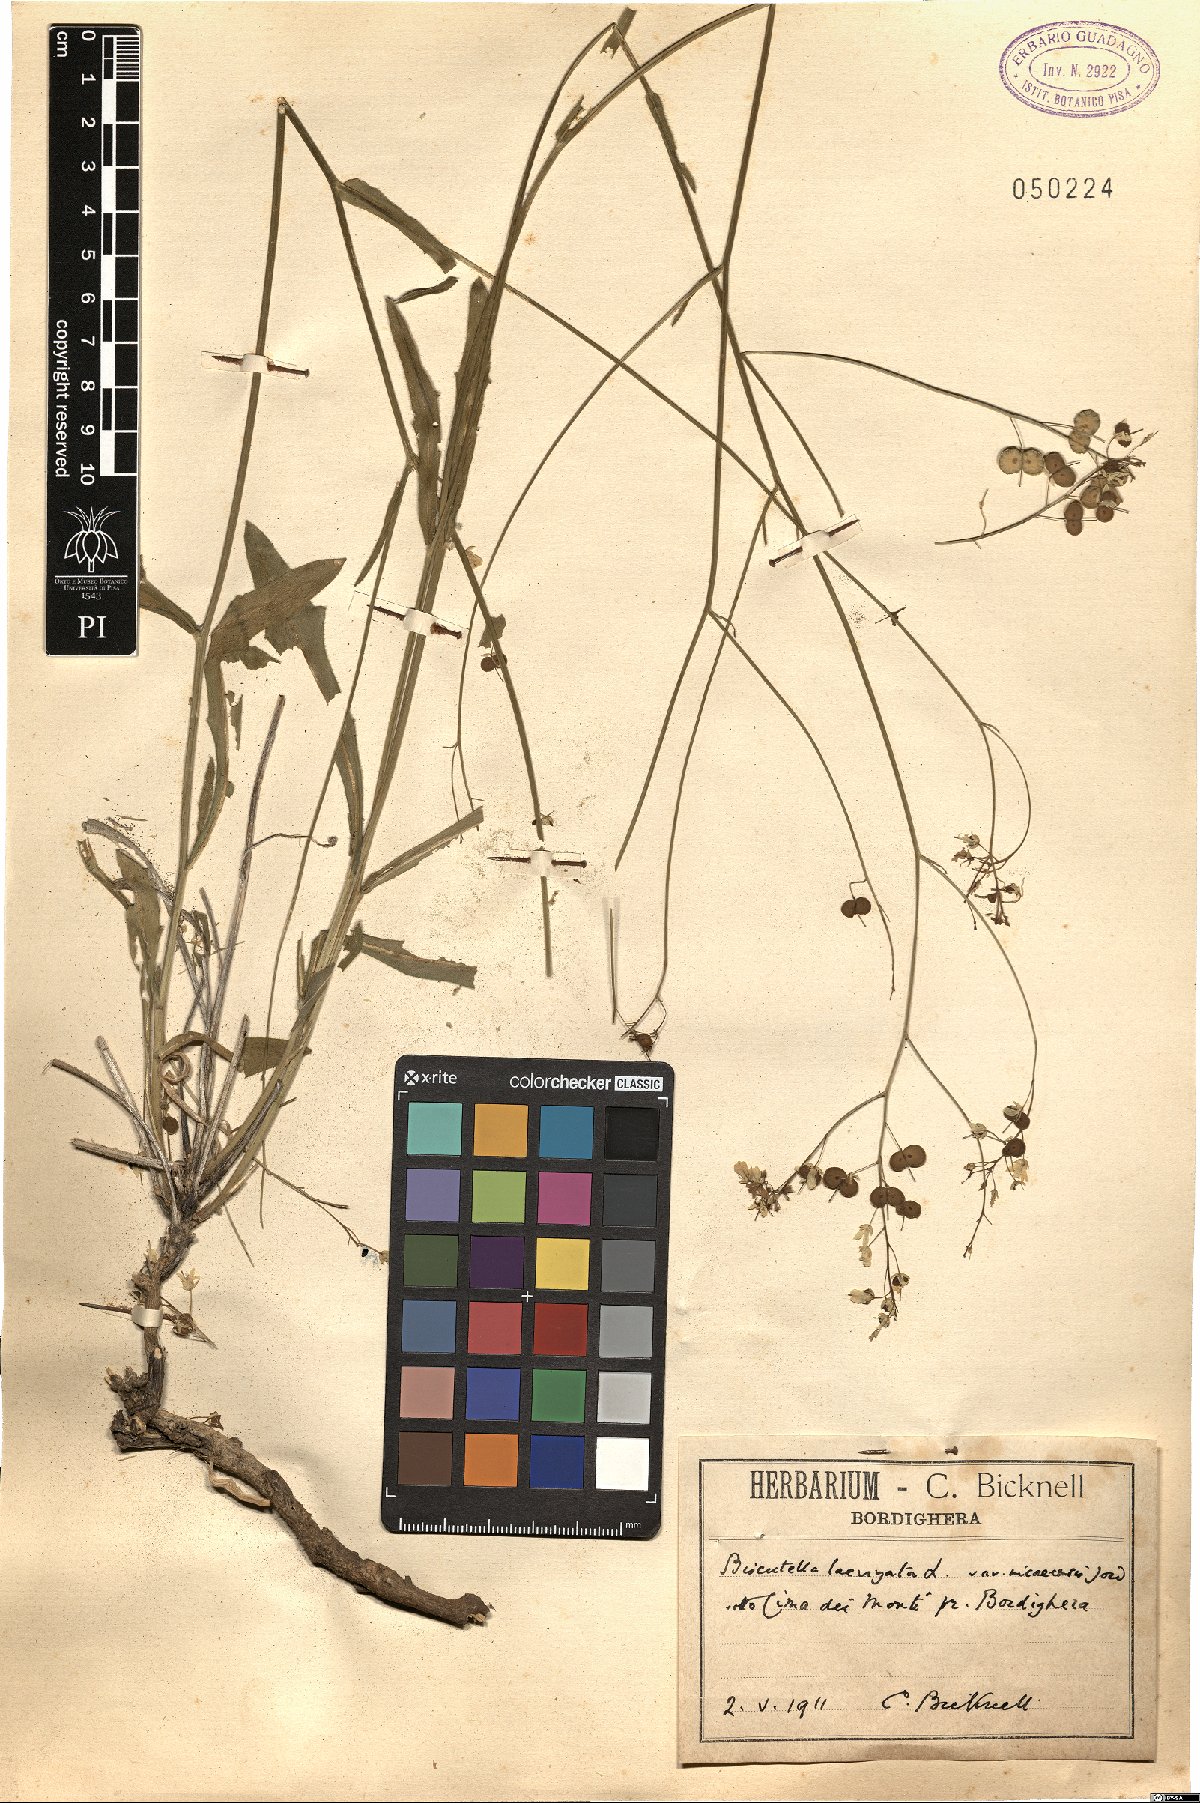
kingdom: Plantae
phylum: Tracheophyta
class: Magnoliopsida
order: Brassicales
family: Brassicaceae
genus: Biscutella
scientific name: Biscutella ambigua
